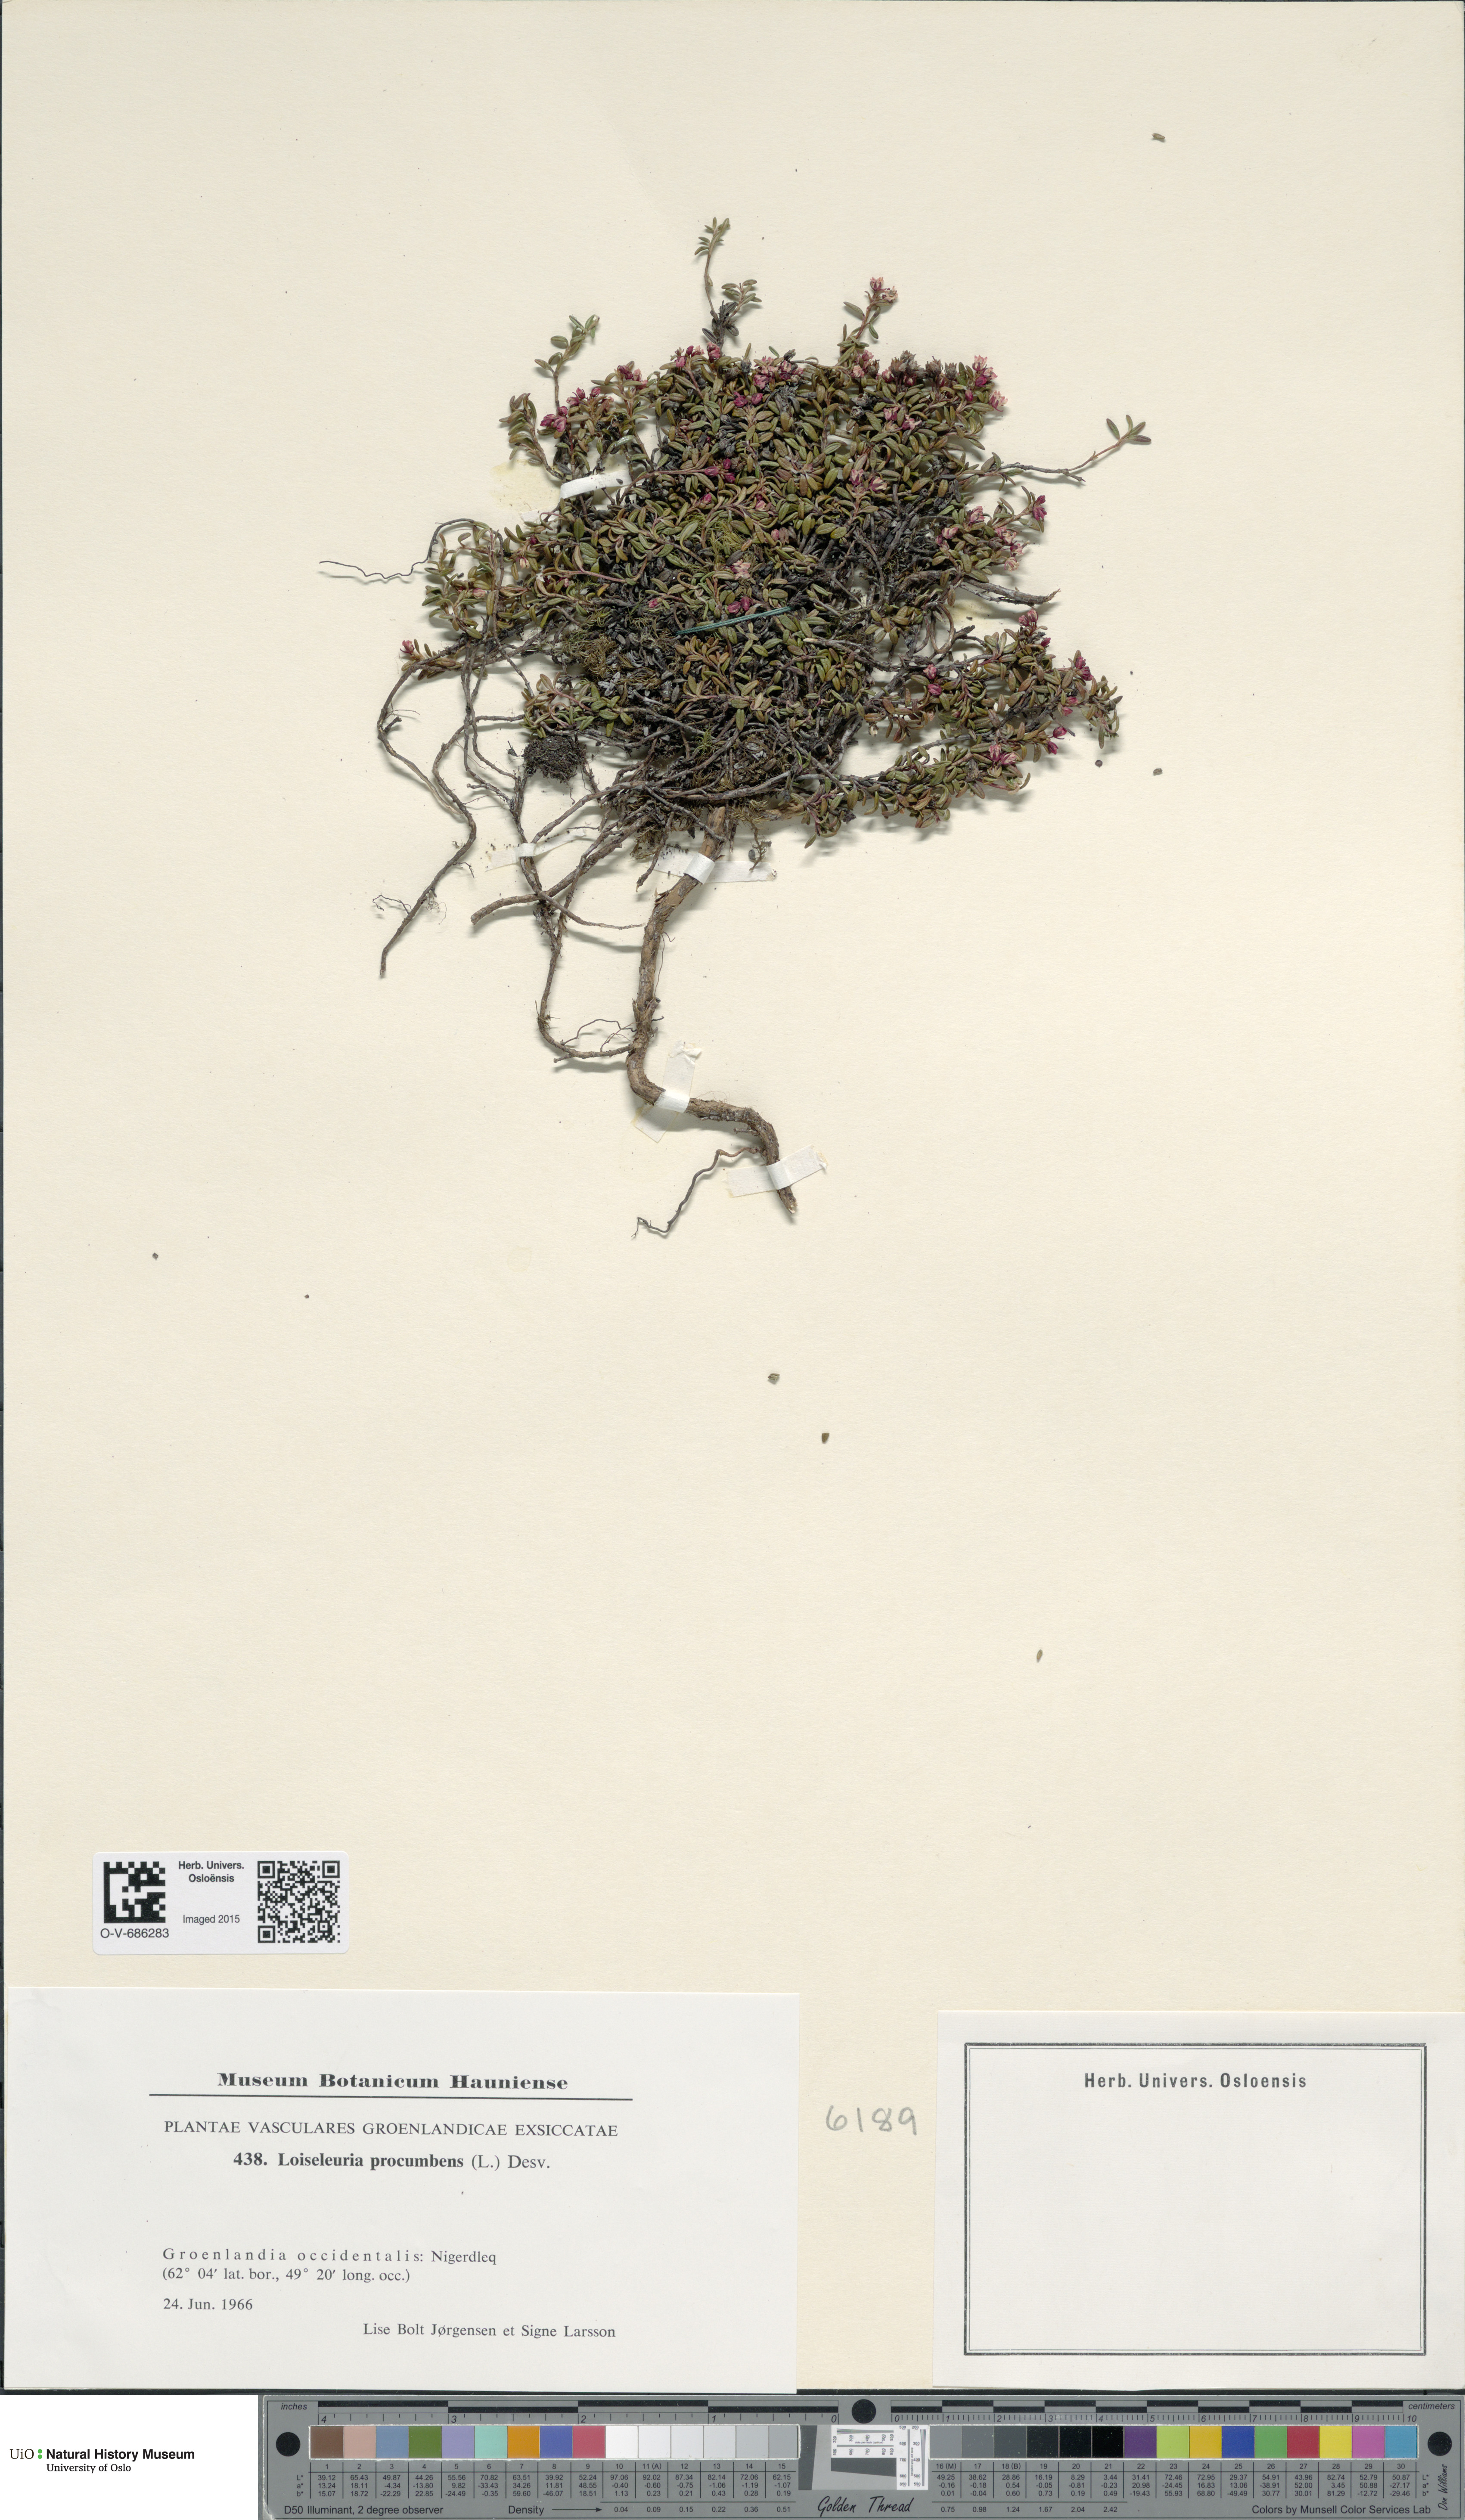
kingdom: Plantae
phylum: Tracheophyta
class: Magnoliopsida
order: Ericales
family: Ericaceae
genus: Kalmia
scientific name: Kalmia procumbens
